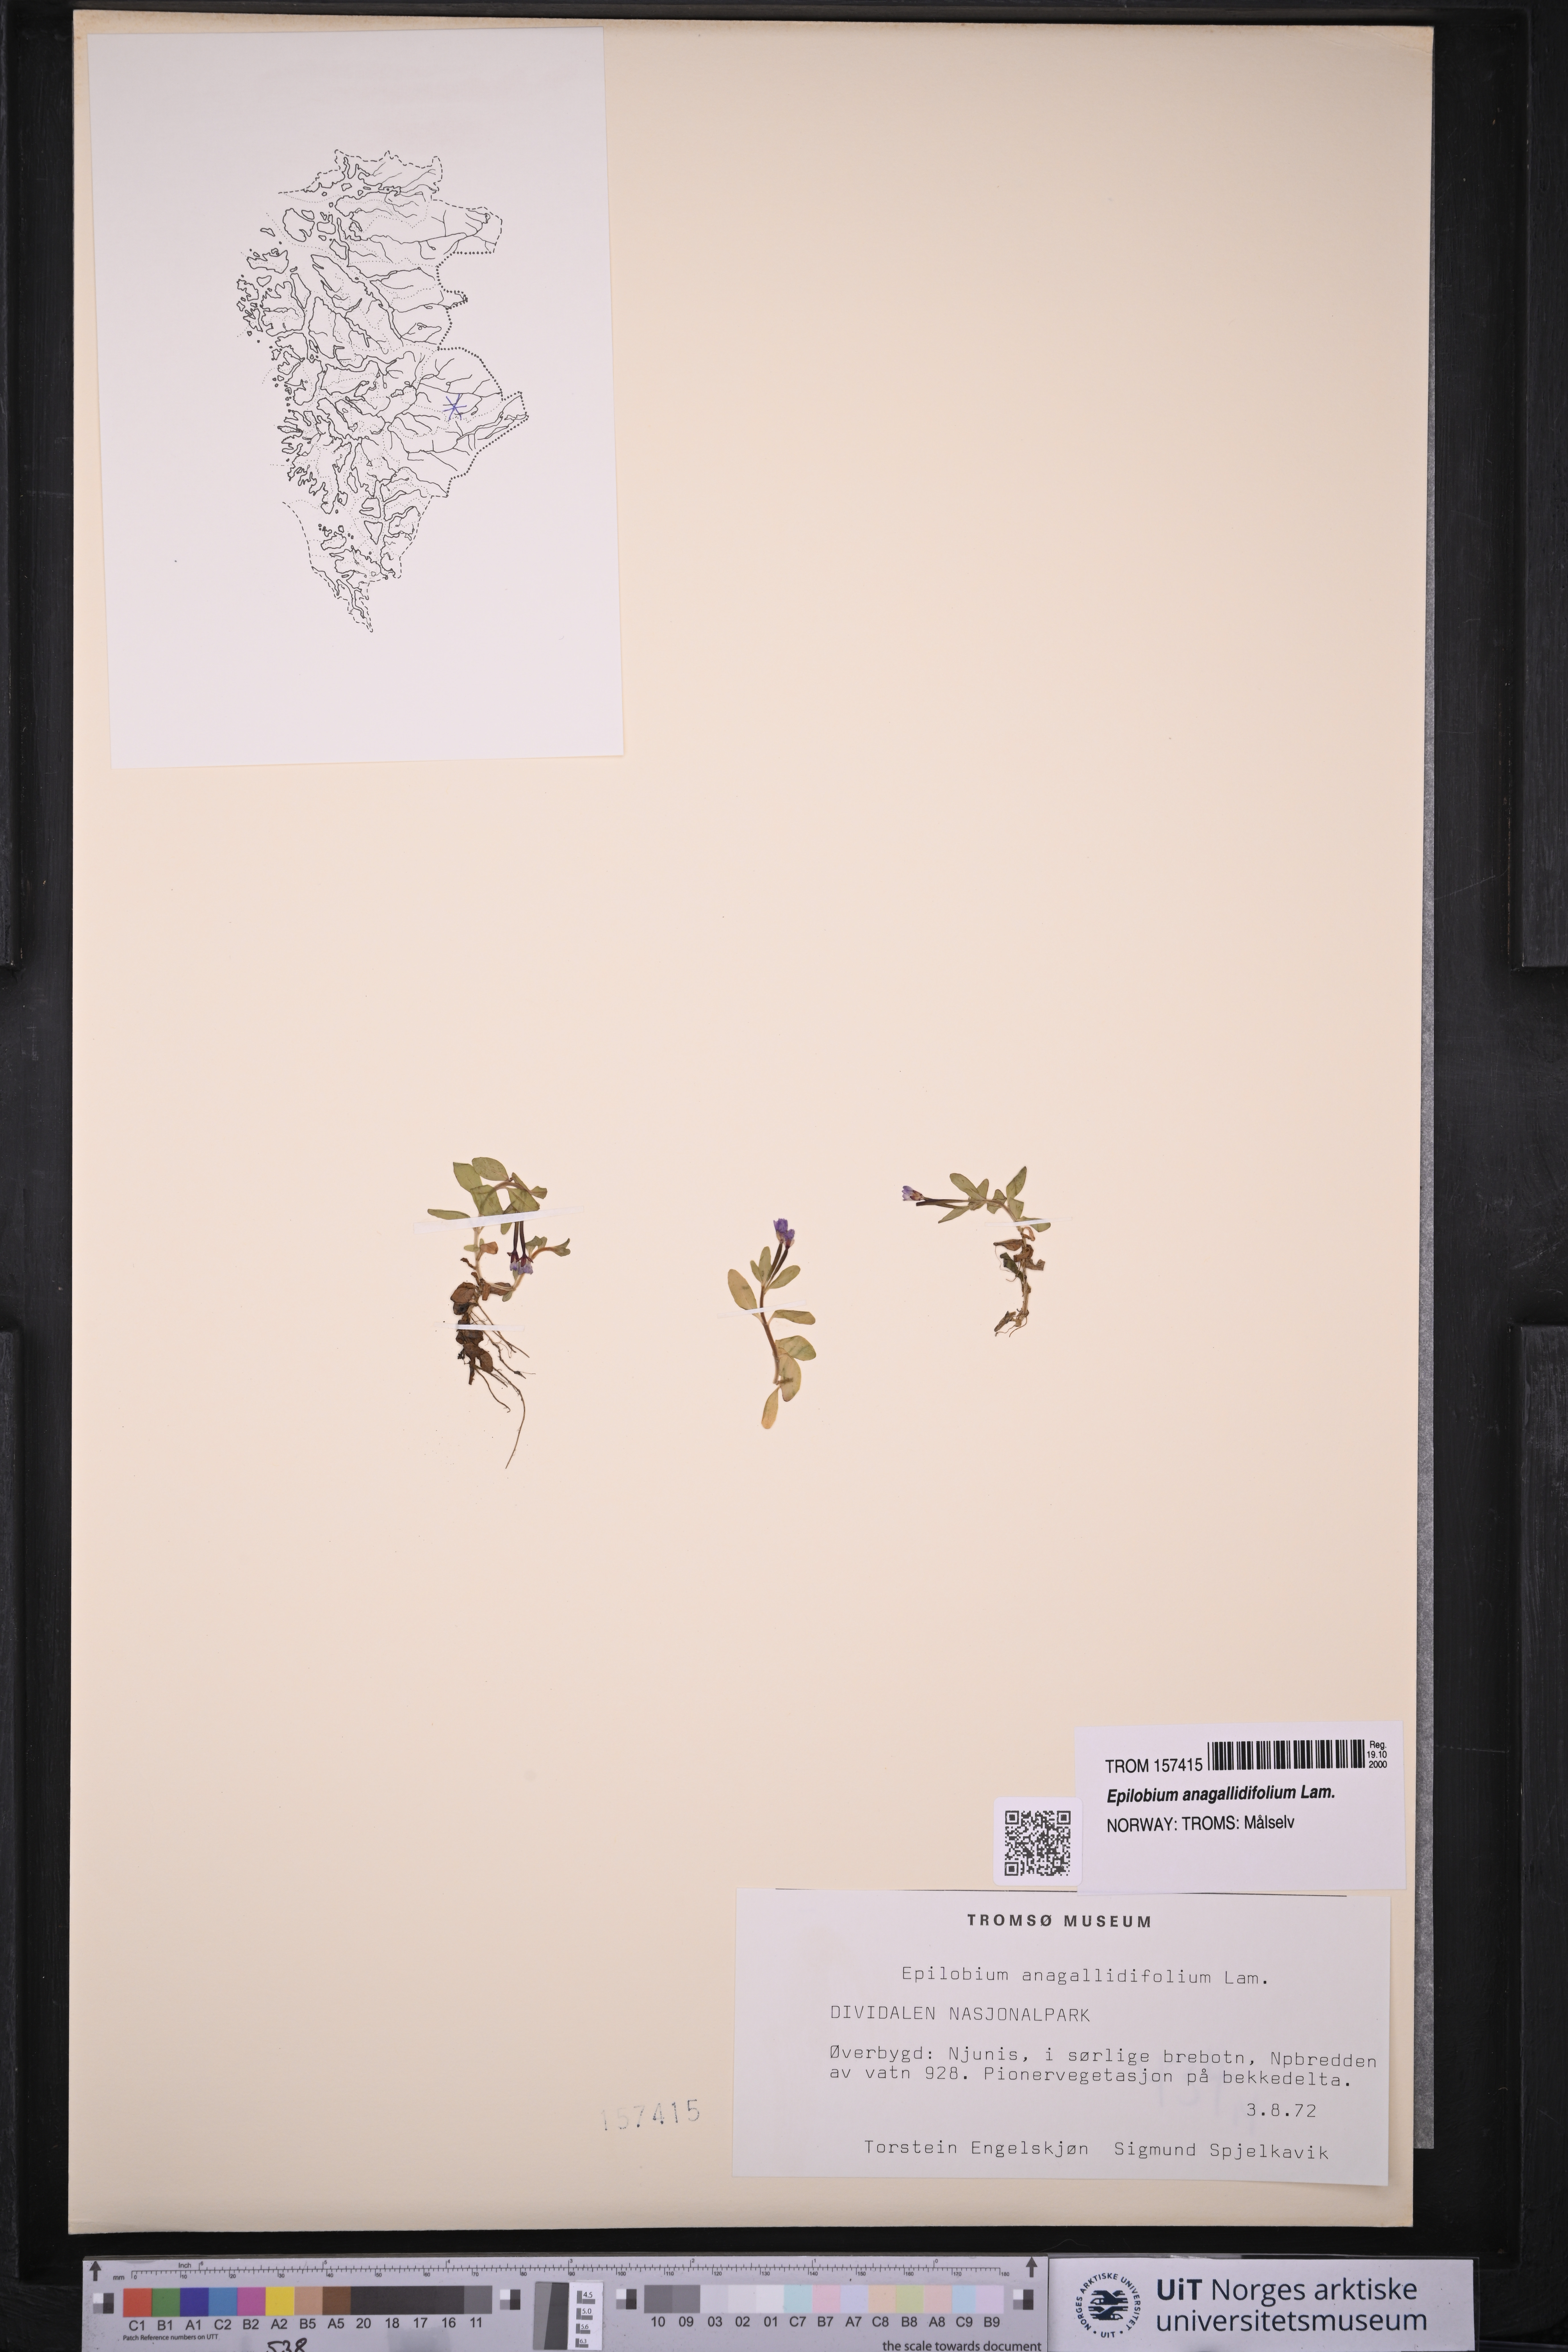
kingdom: Plantae
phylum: Tracheophyta
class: Magnoliopsida
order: Myrtales
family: Onagraceae
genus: Epilobium
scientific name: Epilobium anagallidifolium
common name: Alpine willowherb
